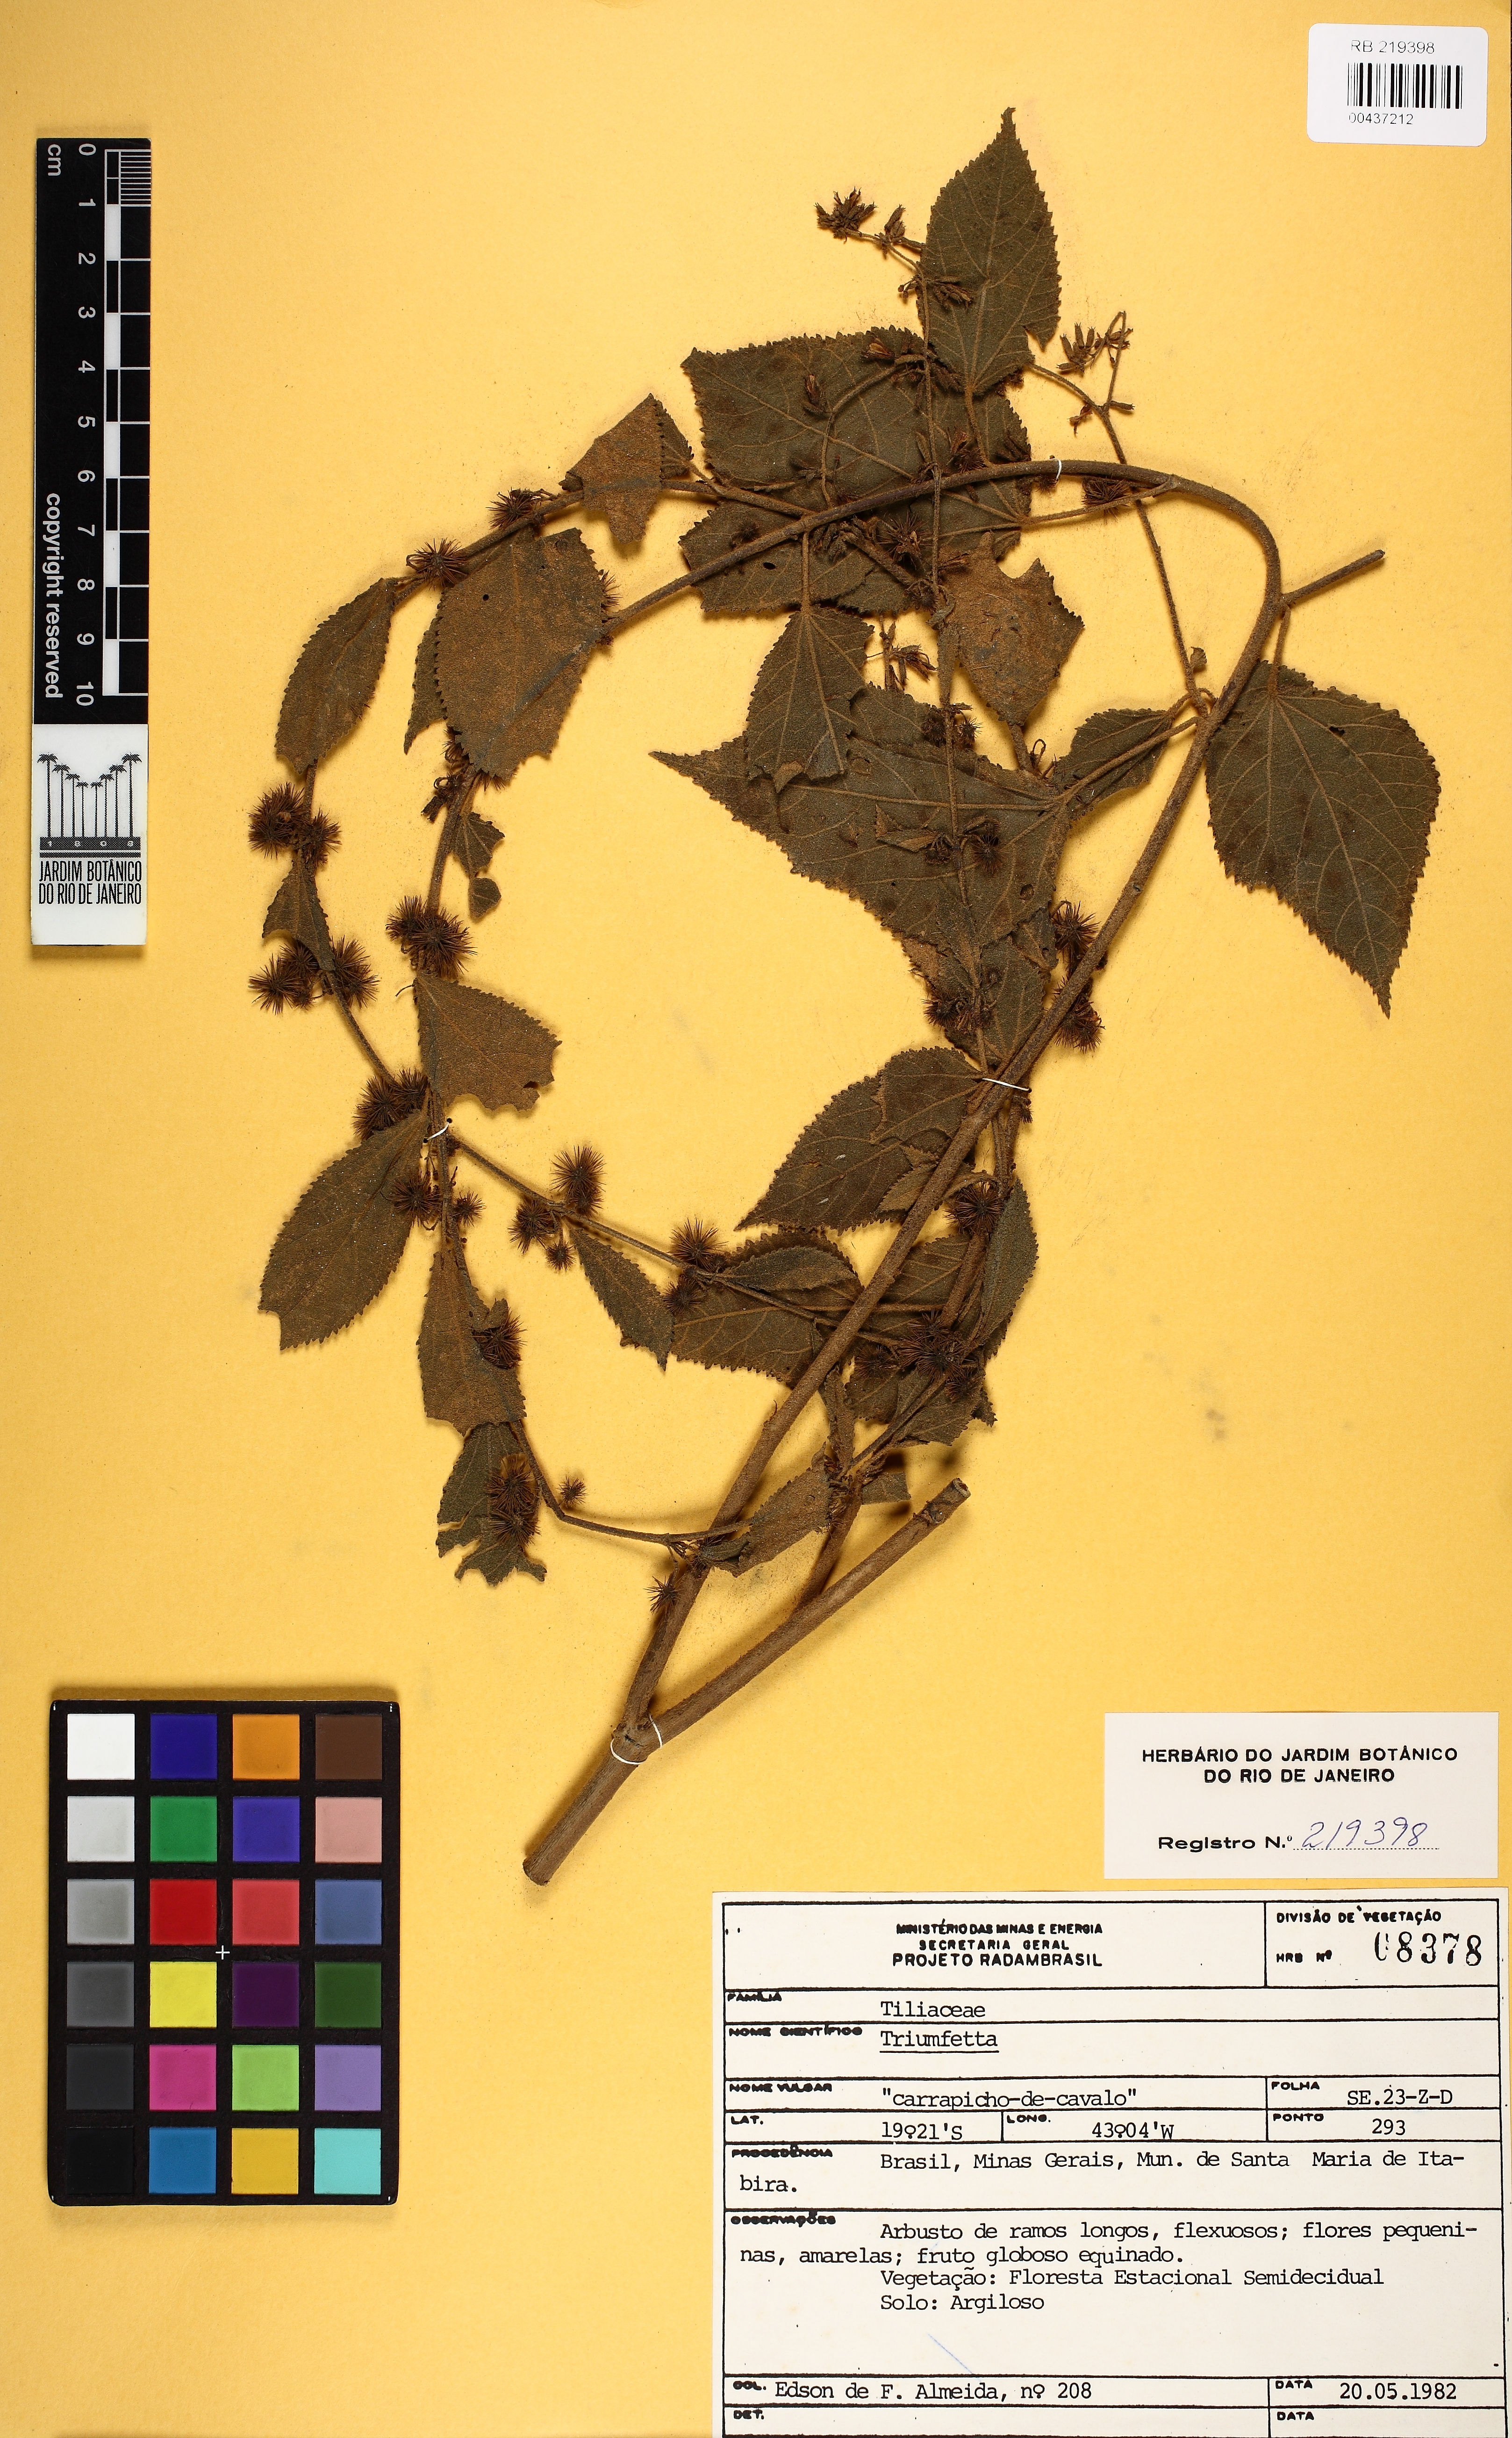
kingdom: Plantae
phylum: Tracheophyta
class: Magnoliopsida
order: Malvales
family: Malvaceae
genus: Triumfetta
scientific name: Triumfetta
